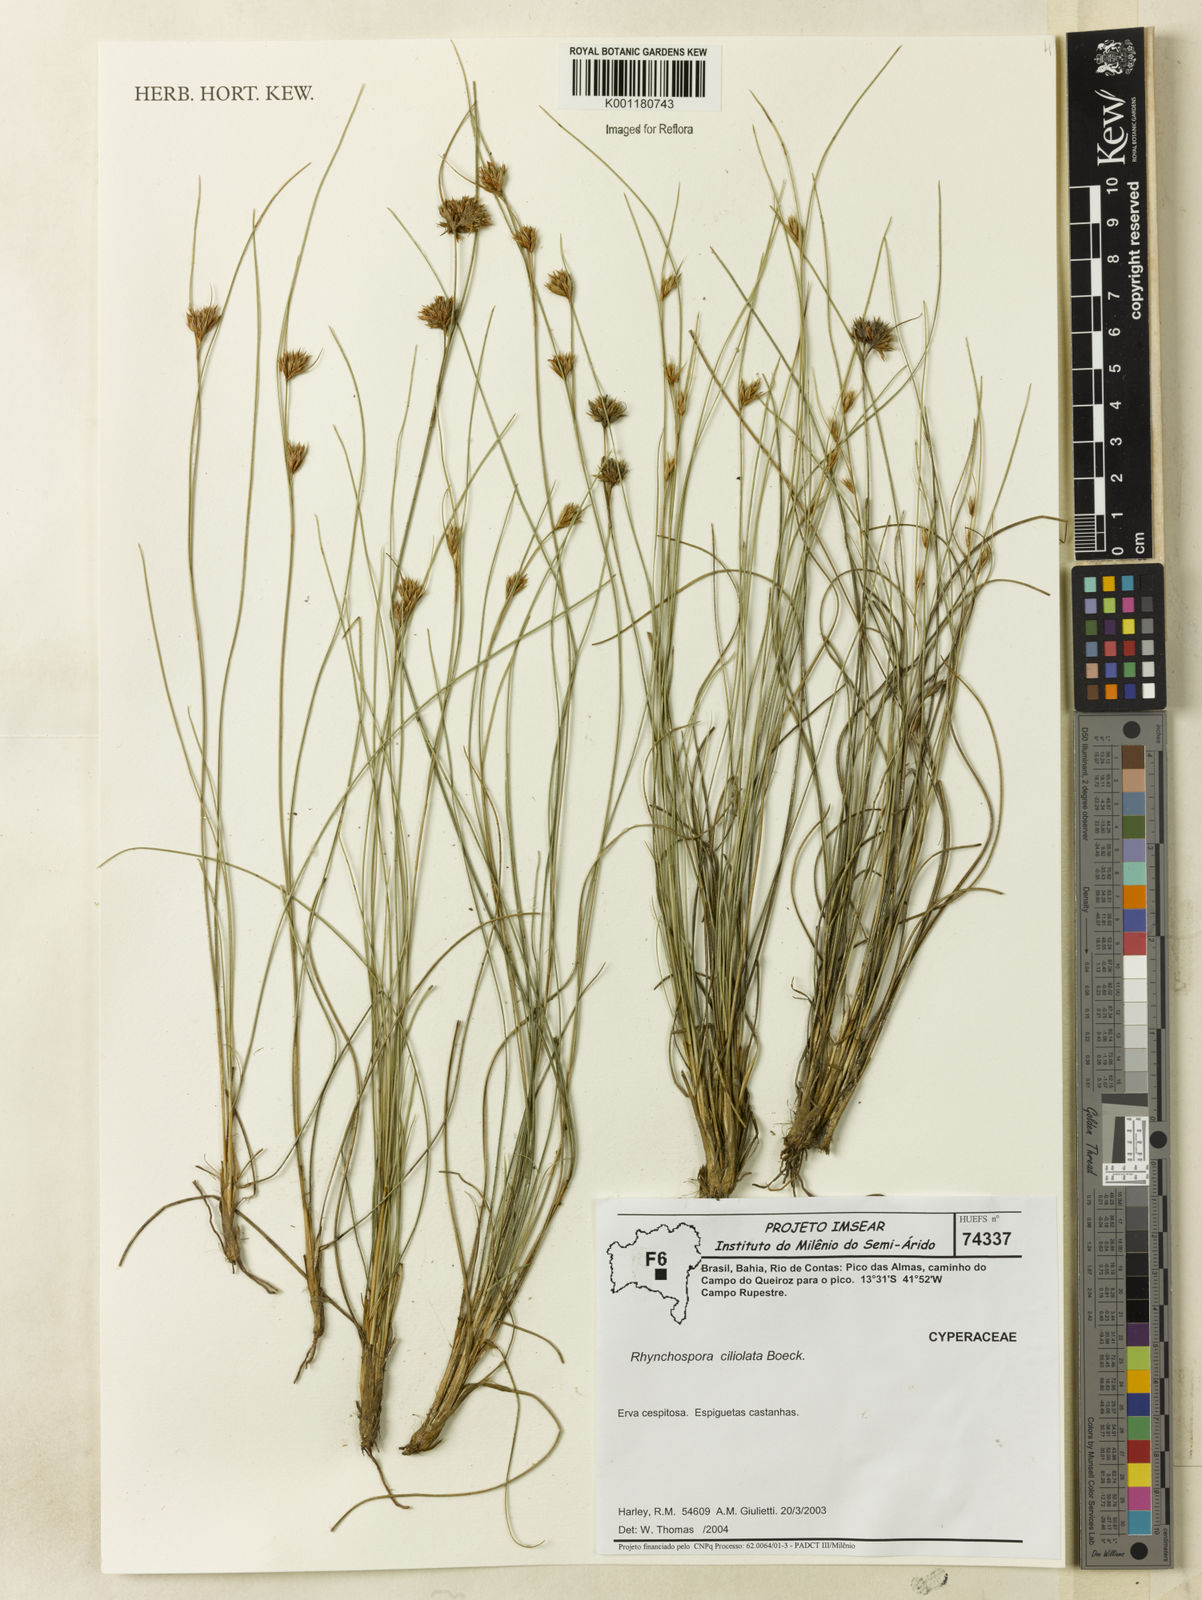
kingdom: Plantae
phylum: Tracheophyta
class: Liliopsida
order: Poales
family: Cyperaceae
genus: Rhynchospora
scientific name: Rhynchospora ciliolata
